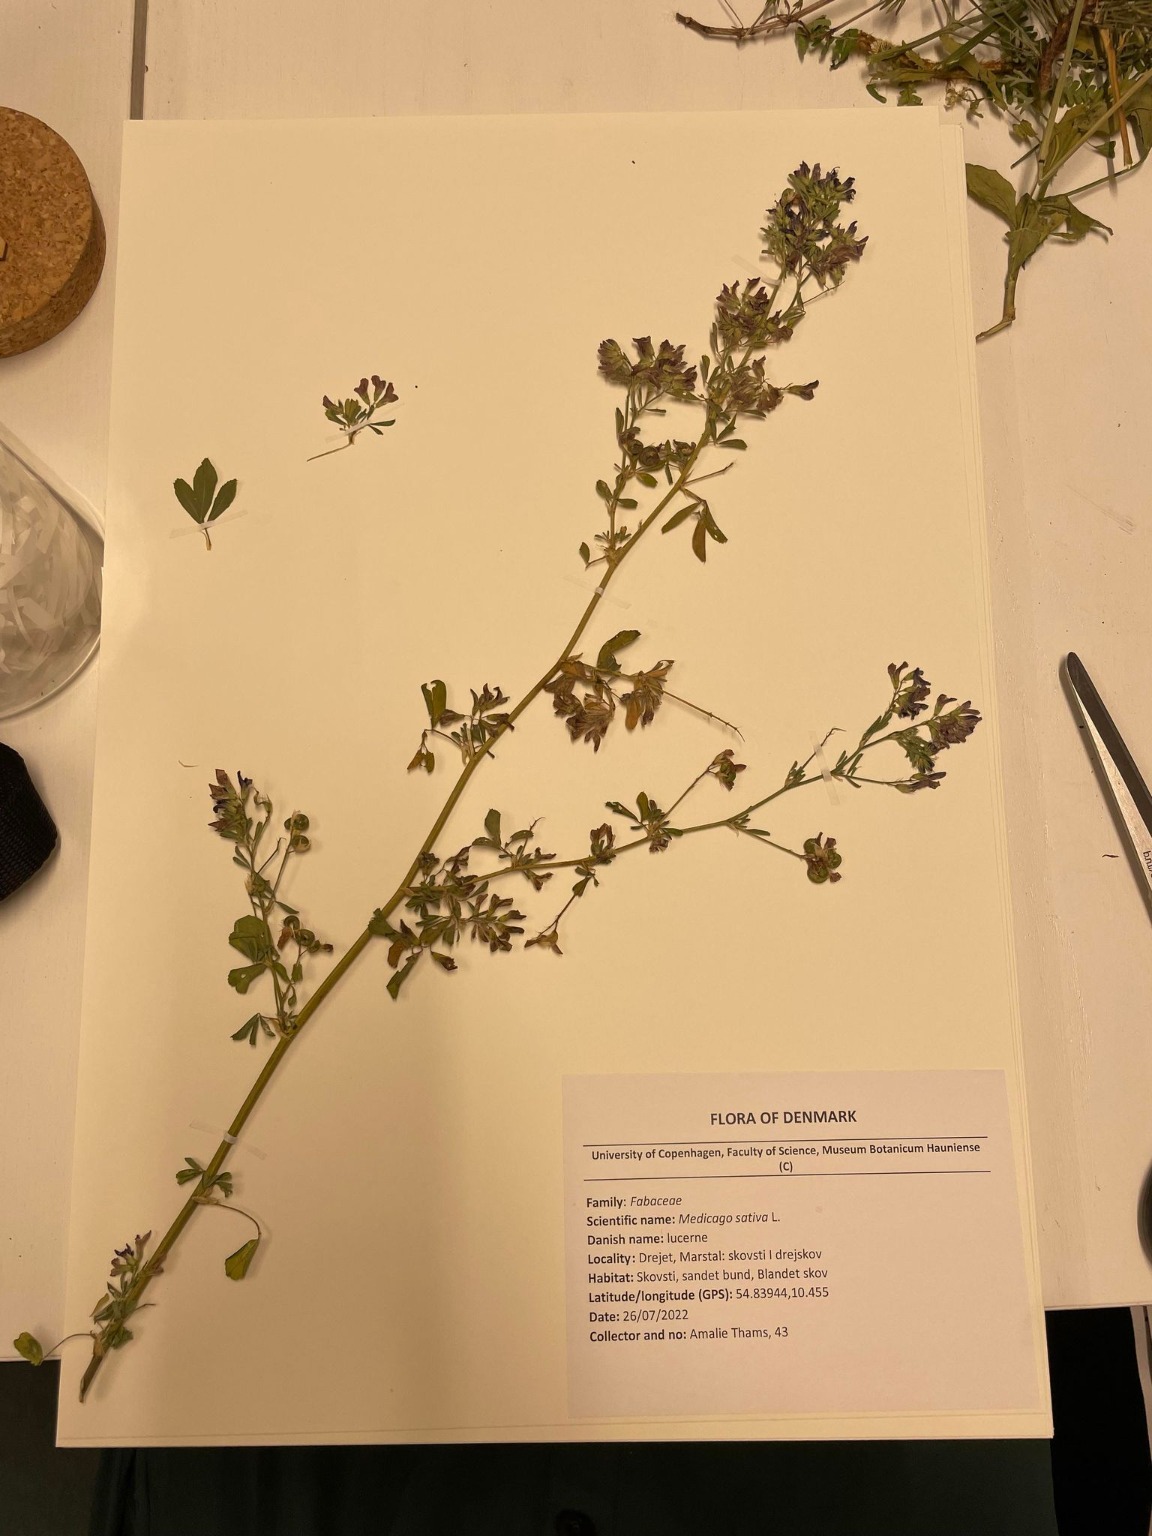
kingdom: Plantae
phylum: Tracheophyta
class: Magnoliopsida
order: Fabales
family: Fabaceae
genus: Medicago
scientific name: Medicago sativa
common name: Lucerne
